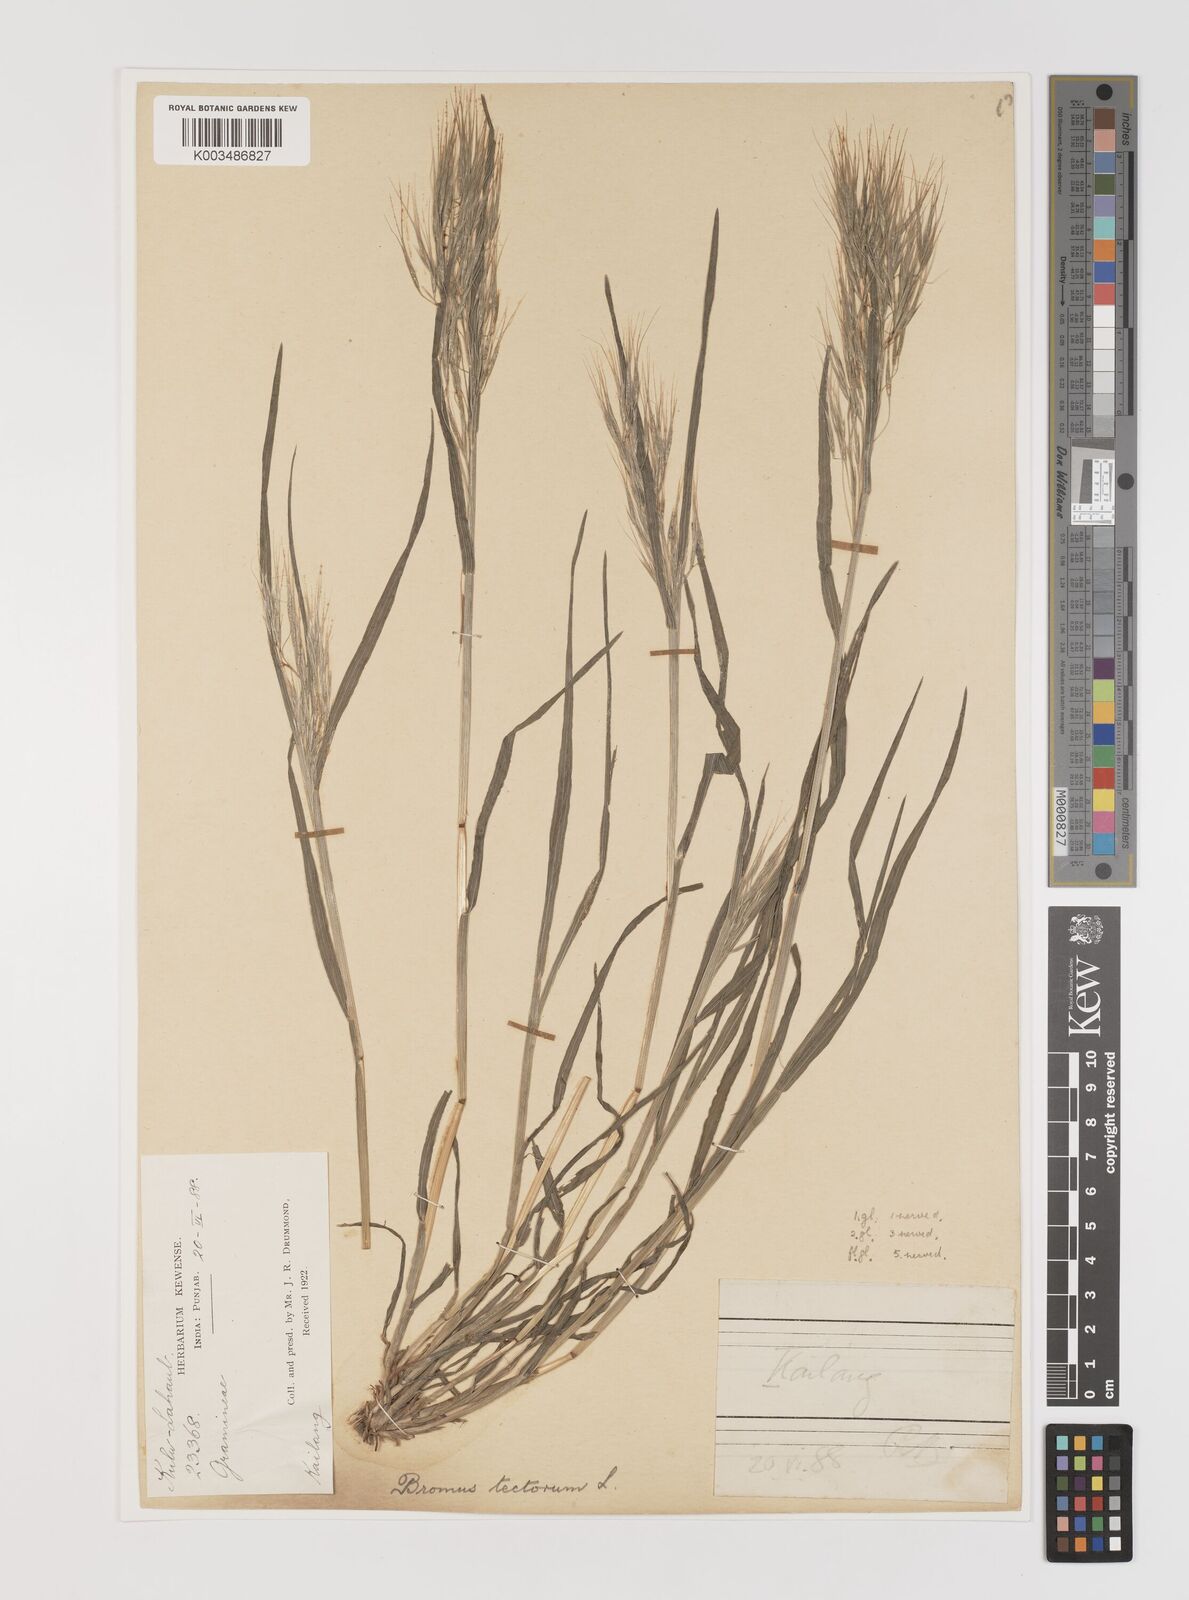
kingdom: Plantae
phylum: Tracheophyta
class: Liliopsida
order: Poales
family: Poaceae
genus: Bromus
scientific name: Bromus tectorum
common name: Cheatgrass
